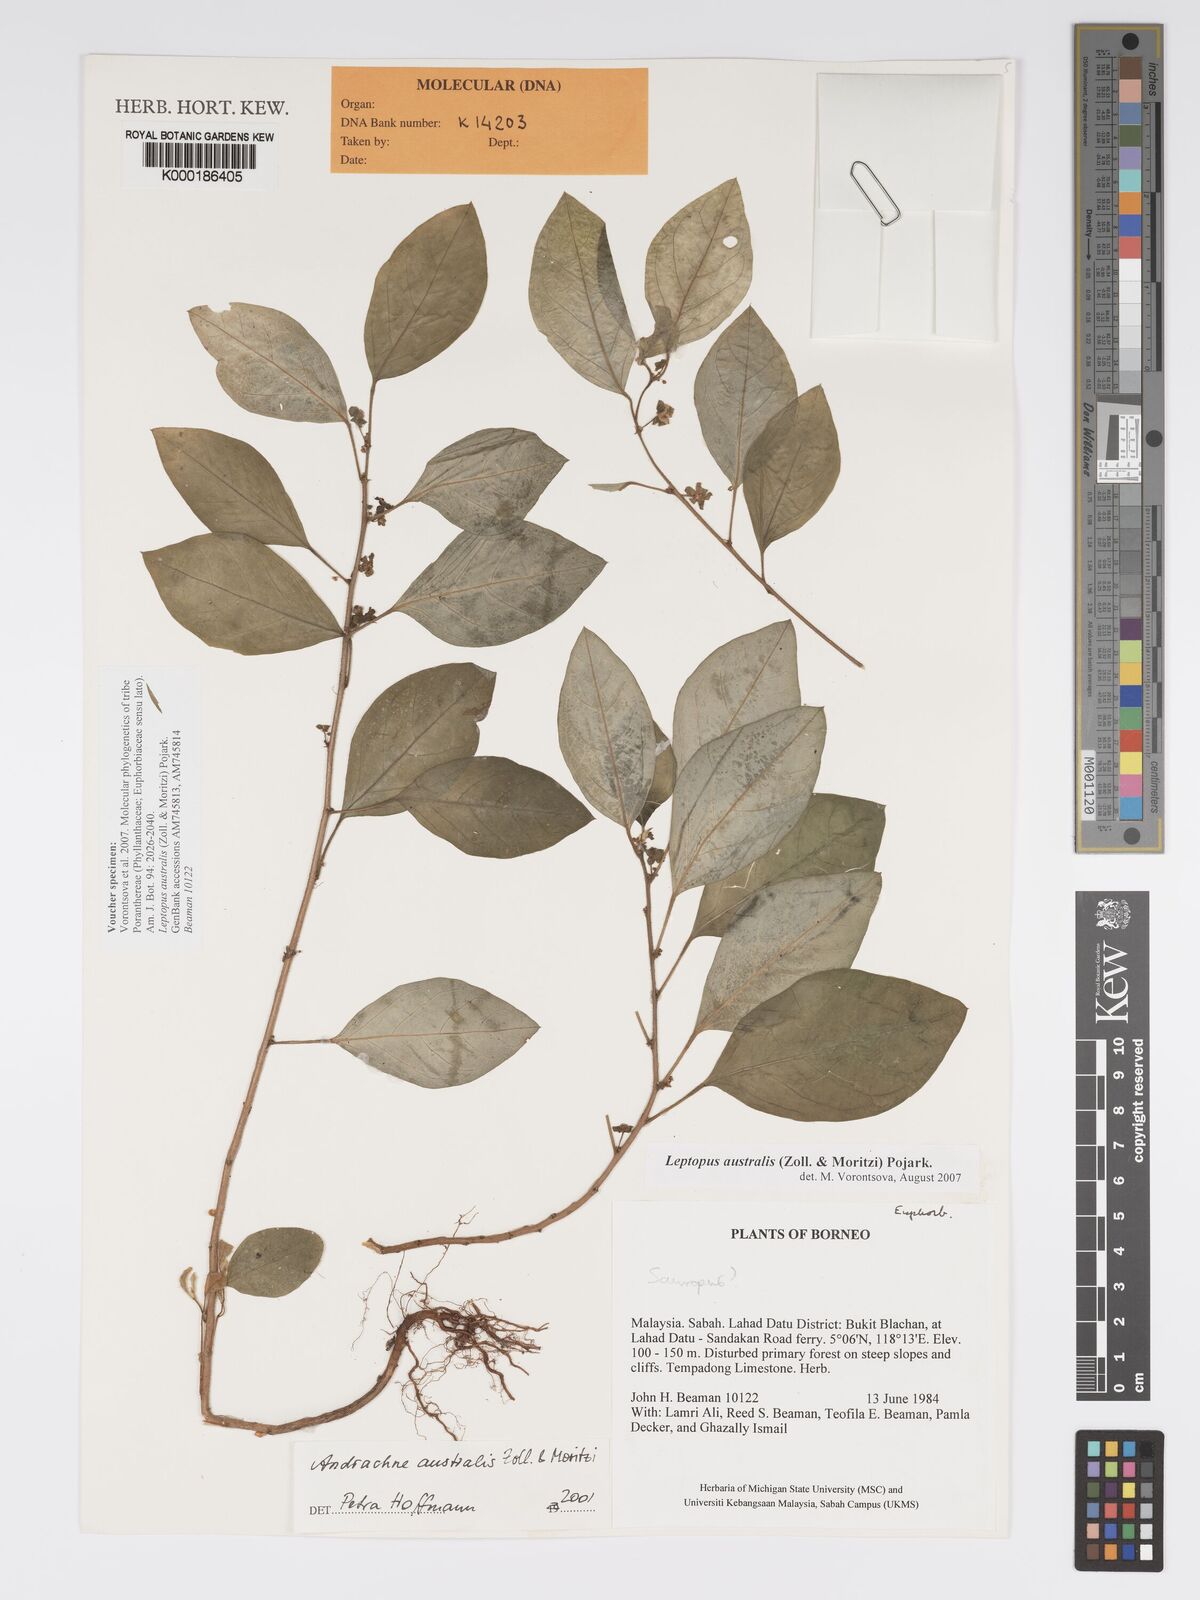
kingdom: Plantae
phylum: Tracheophyta
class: Magnoliopsida
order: Malpighiales
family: Phyllanthaceae
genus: Leptopus
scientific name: Leptopus australis
